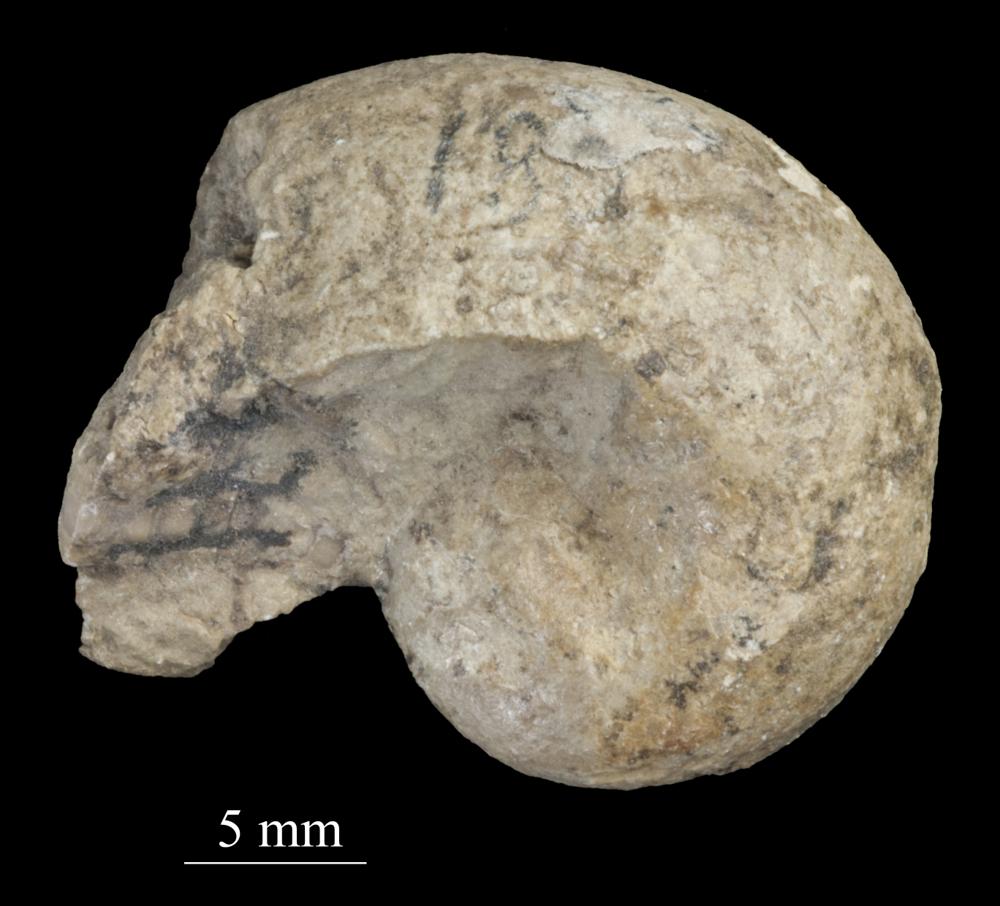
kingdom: Animalia
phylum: Mollusca
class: Gastropoda
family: Sinuitidae
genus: Sinuites
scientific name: Sinuites bilobatus
